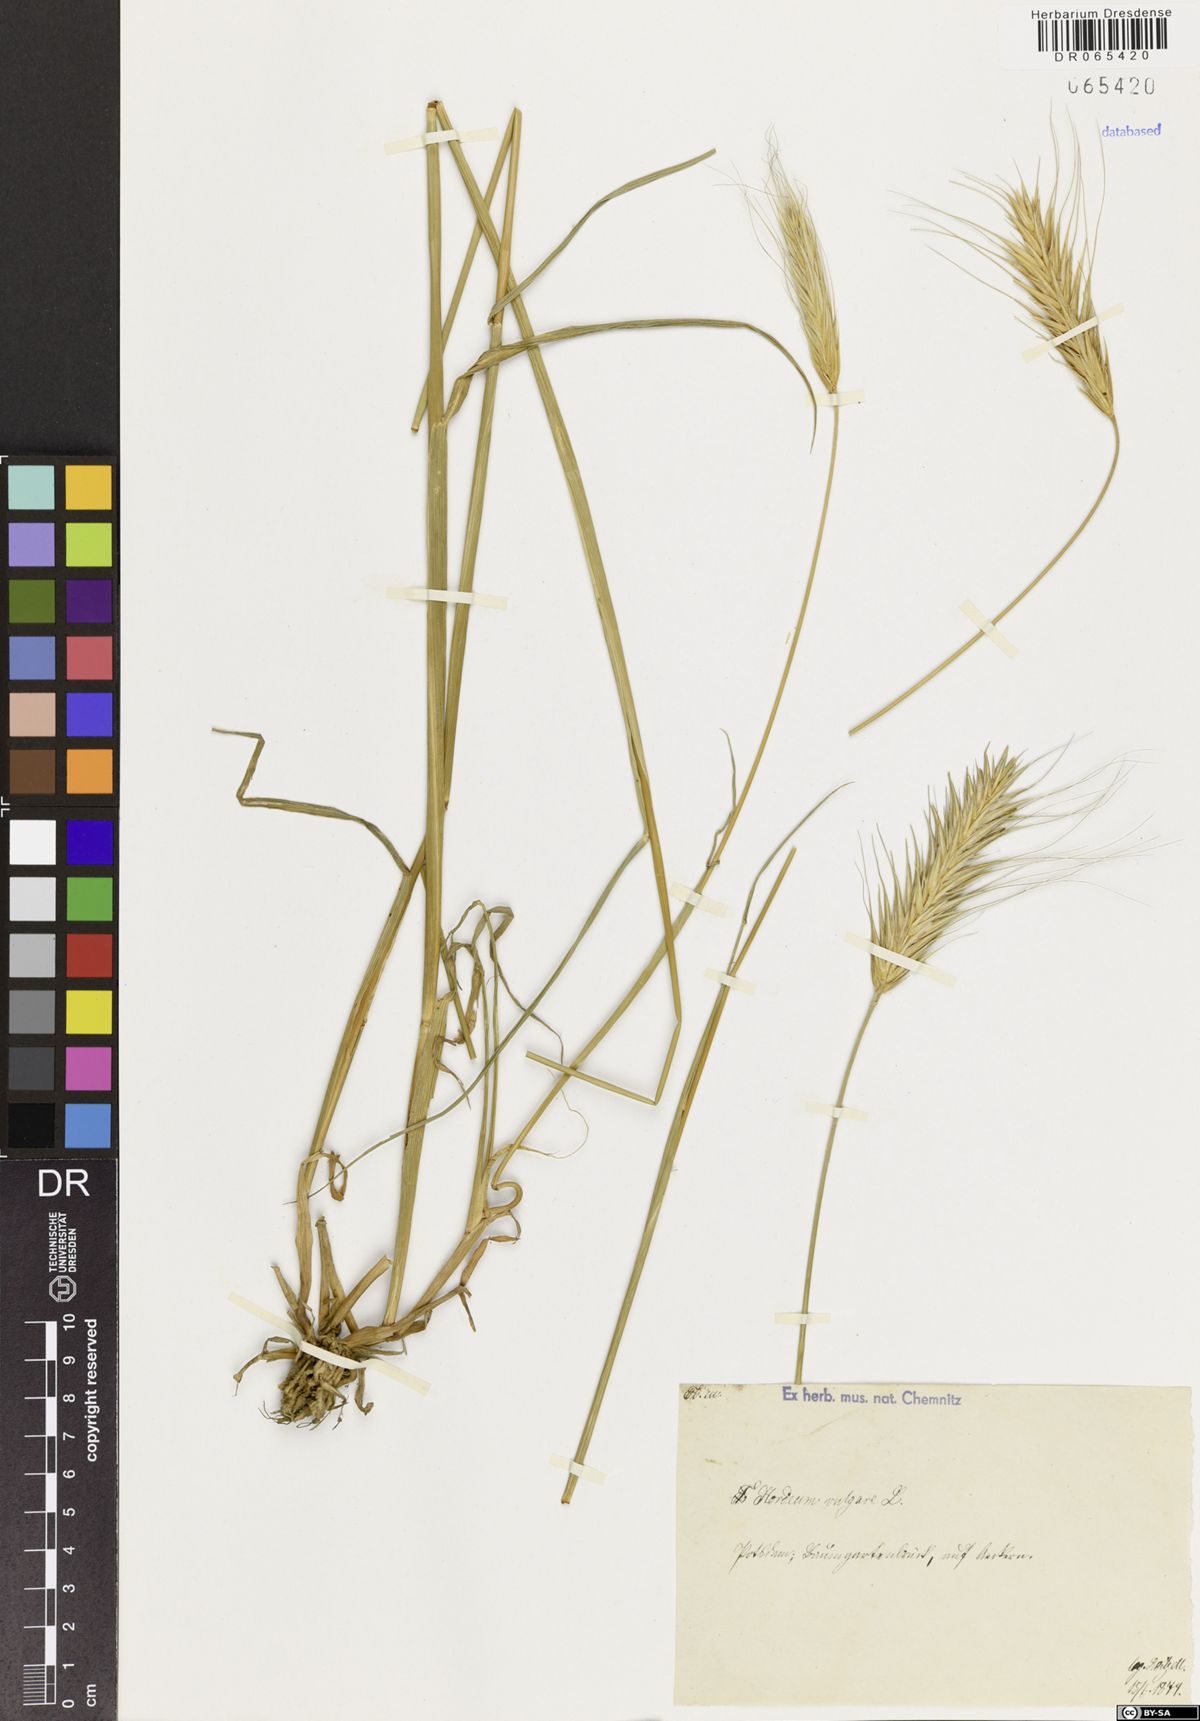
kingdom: Plantae
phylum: Tracheophyta
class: Liliopsida
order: Poales
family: Poaceae
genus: Hordeum
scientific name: Hordeum vulgare
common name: Common barley
